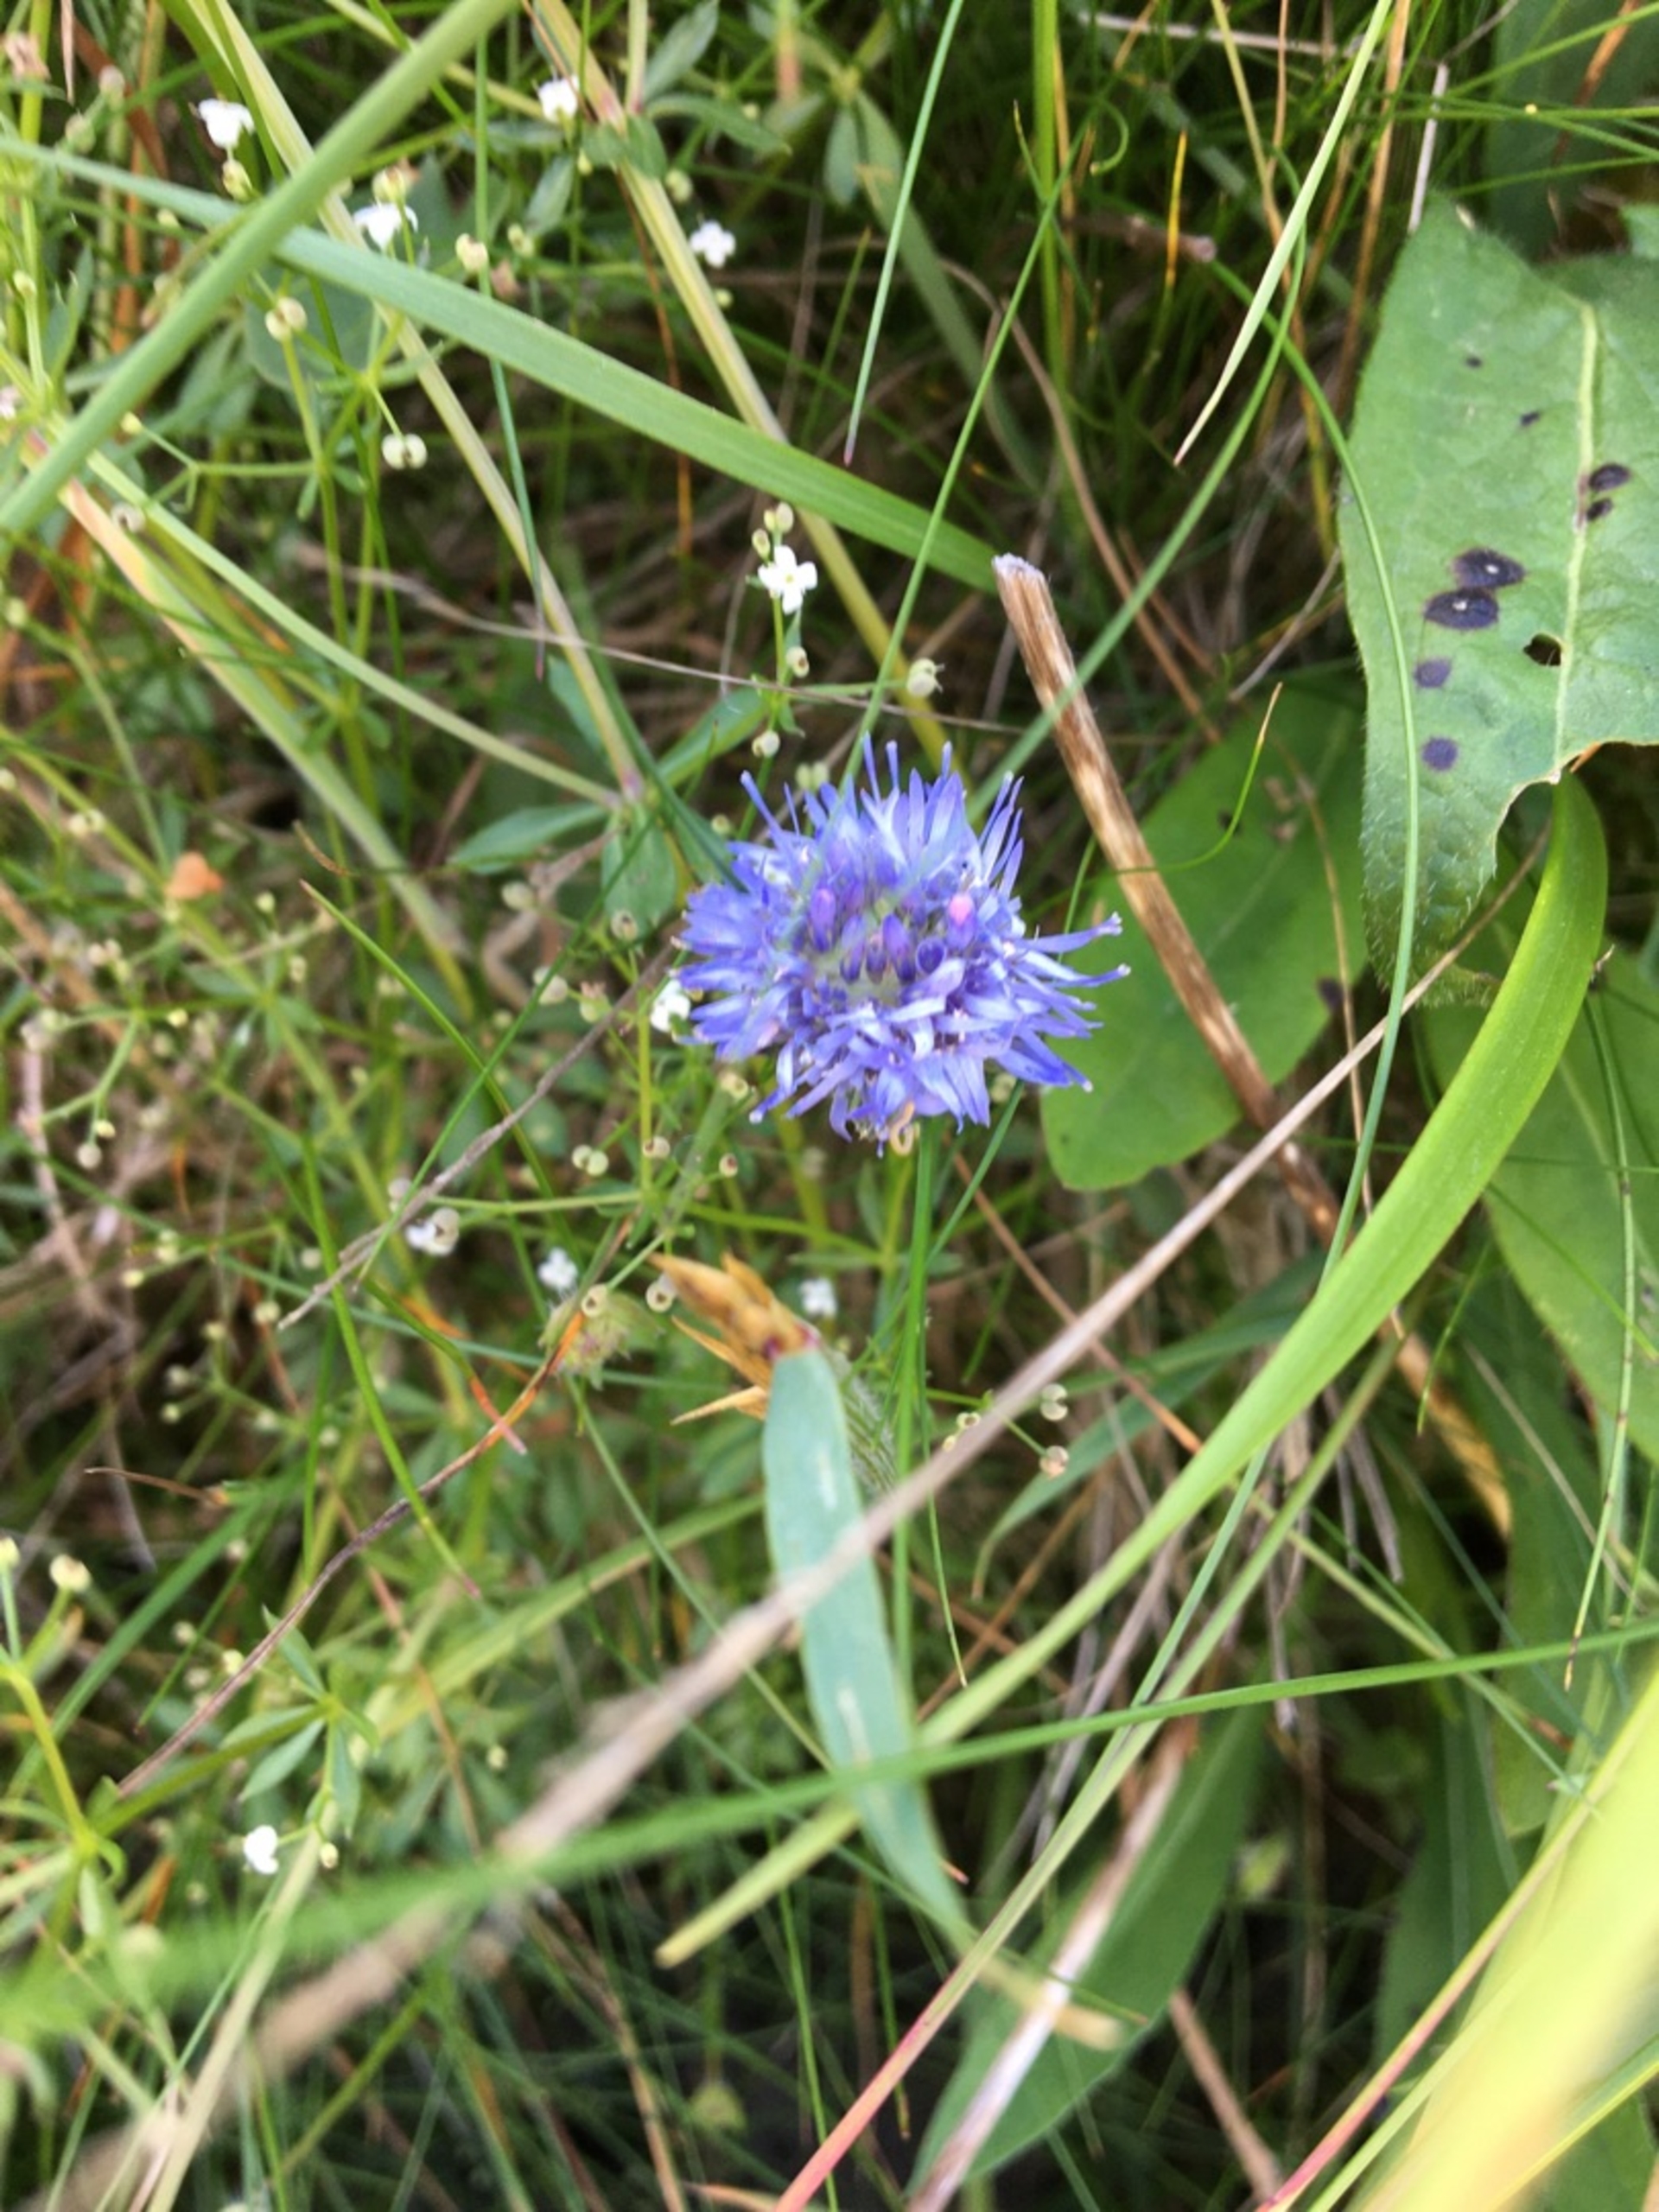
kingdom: Plantae
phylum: Tracheophyta
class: Magnoliopsida
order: Asterales
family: Campanulaceae
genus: Jasione
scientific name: Jasione montana
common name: Blåmunke
